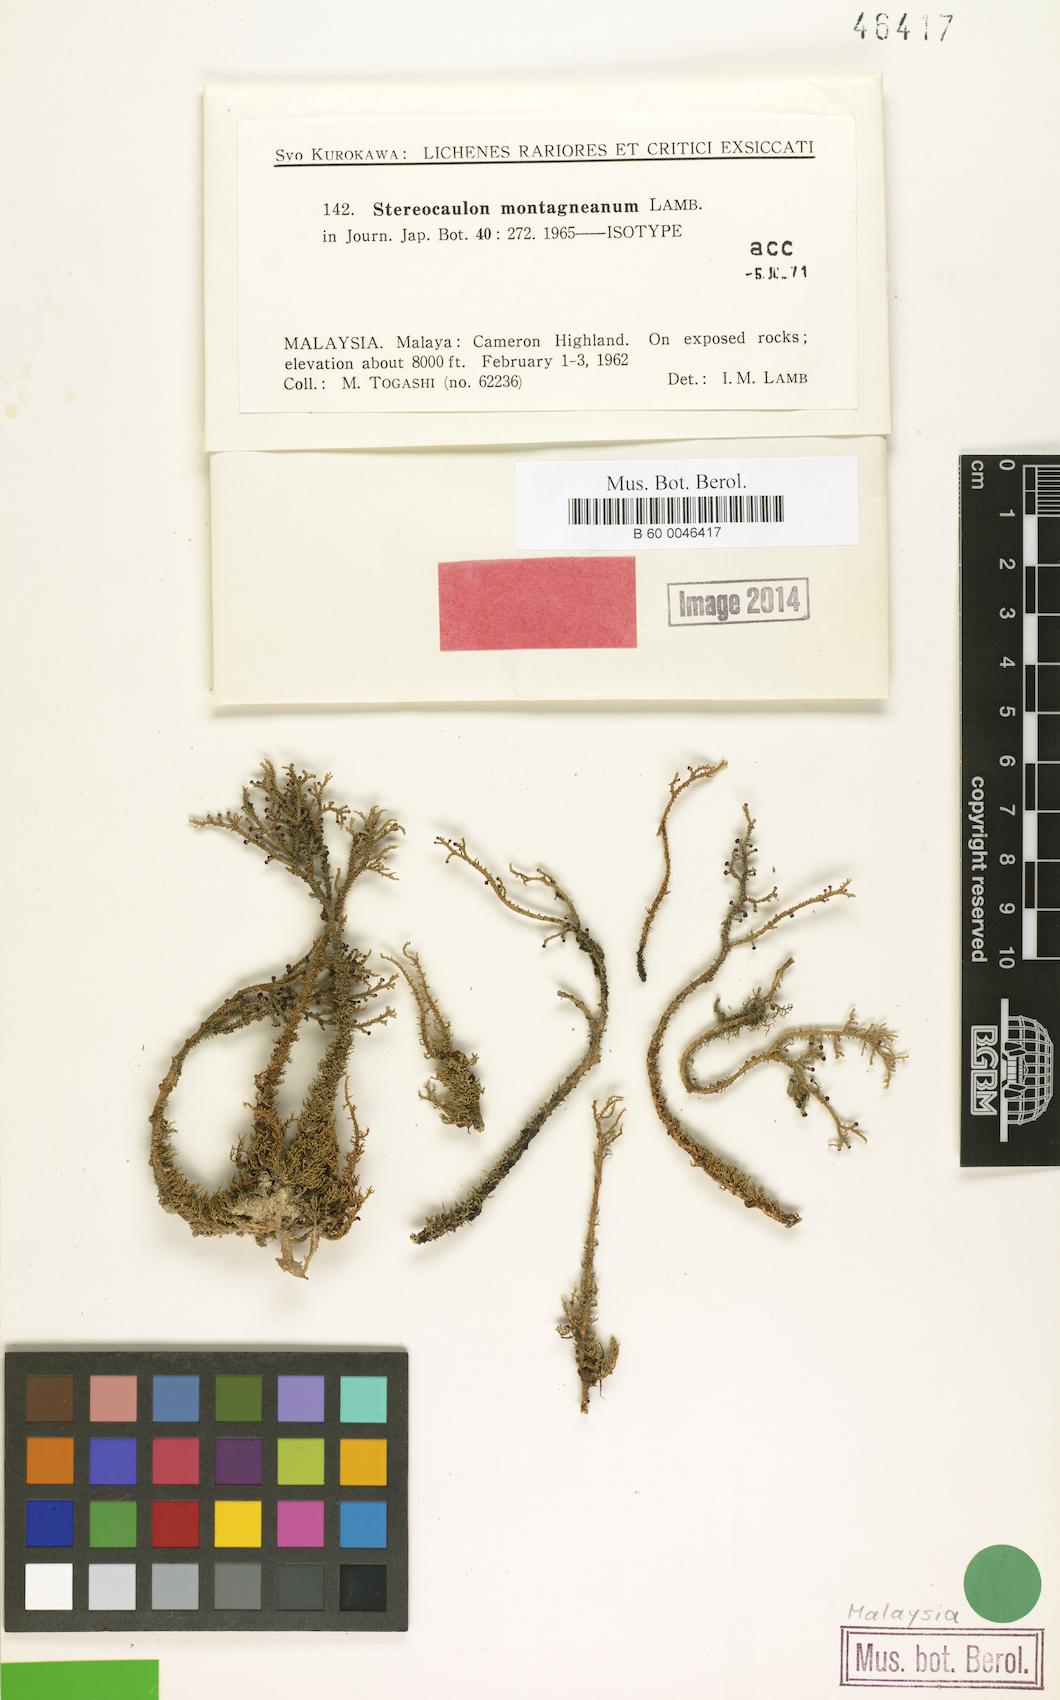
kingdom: Fungi
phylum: Ascomycota
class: Lecanoromycetes
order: Lecanorales
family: Stereocaulaceae
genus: Stereocaulon
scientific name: Stereocaulon montagneanum
